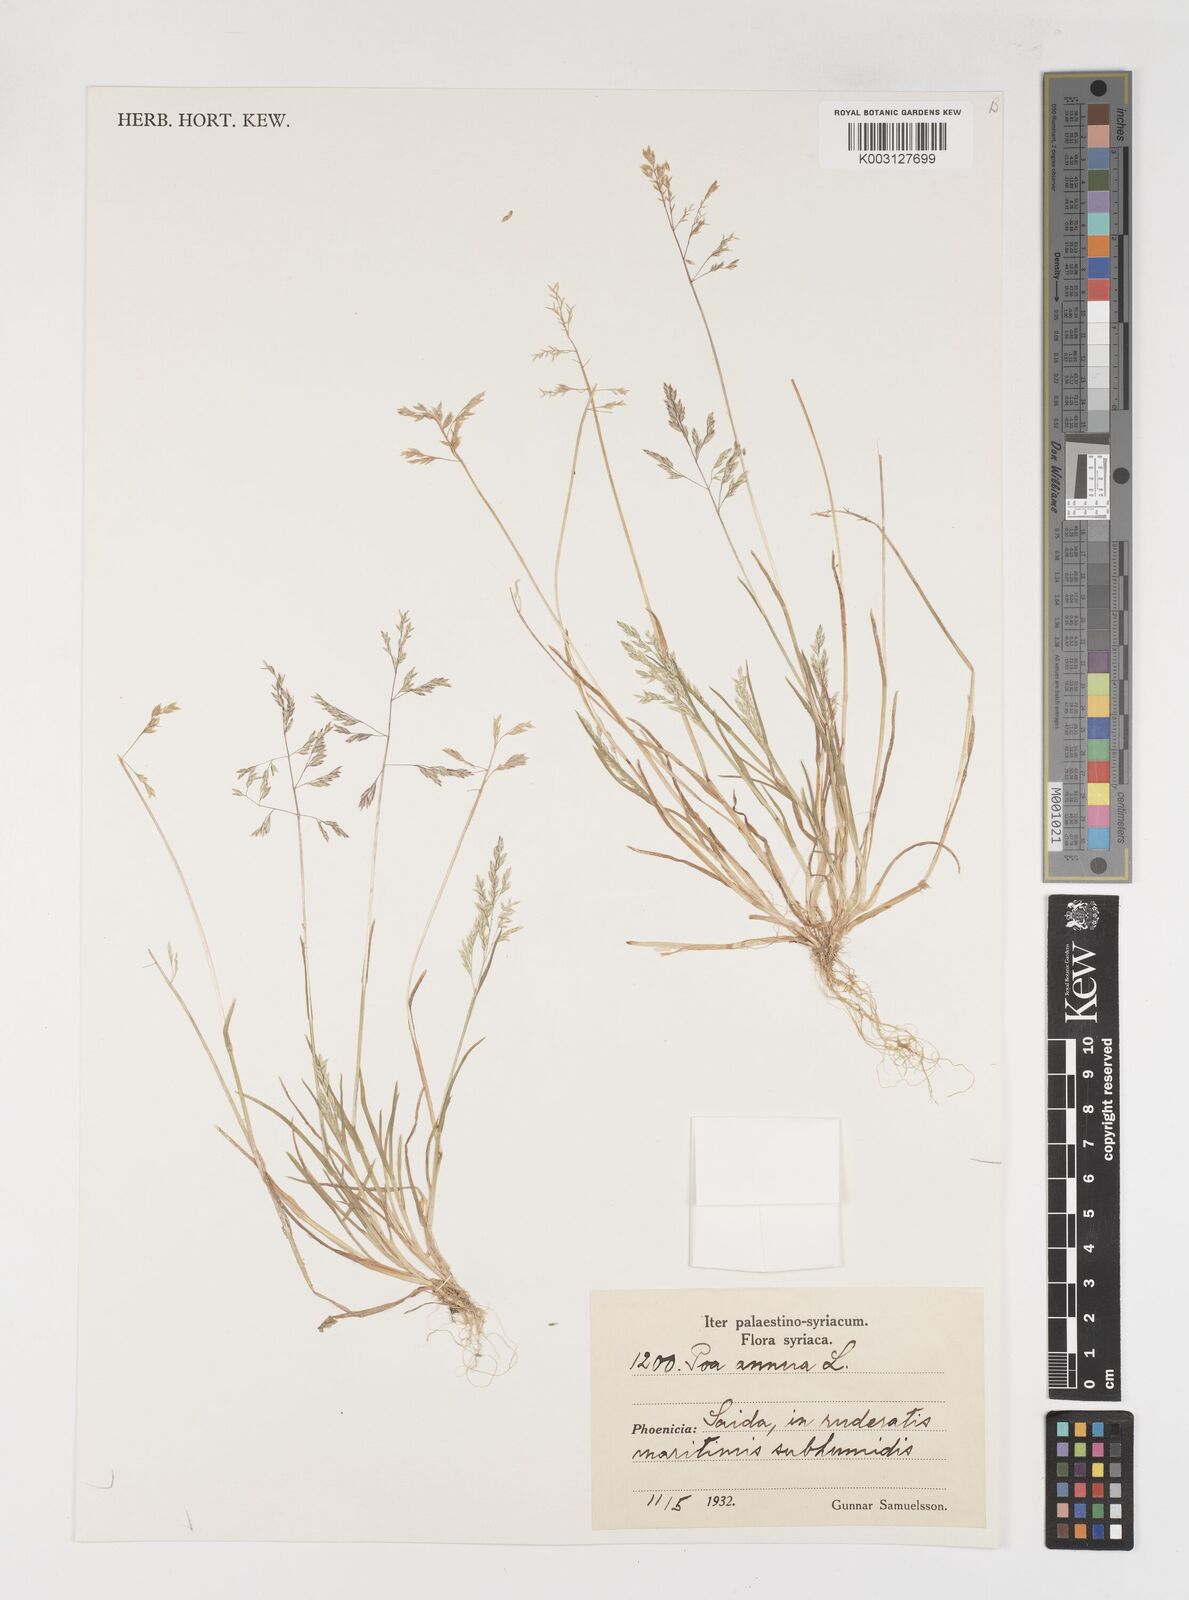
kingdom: Plantae
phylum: Tracheophyta
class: Liliopsida
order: Poales
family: Poaceae
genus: Poa
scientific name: Poa annua
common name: Annual bluegrass
